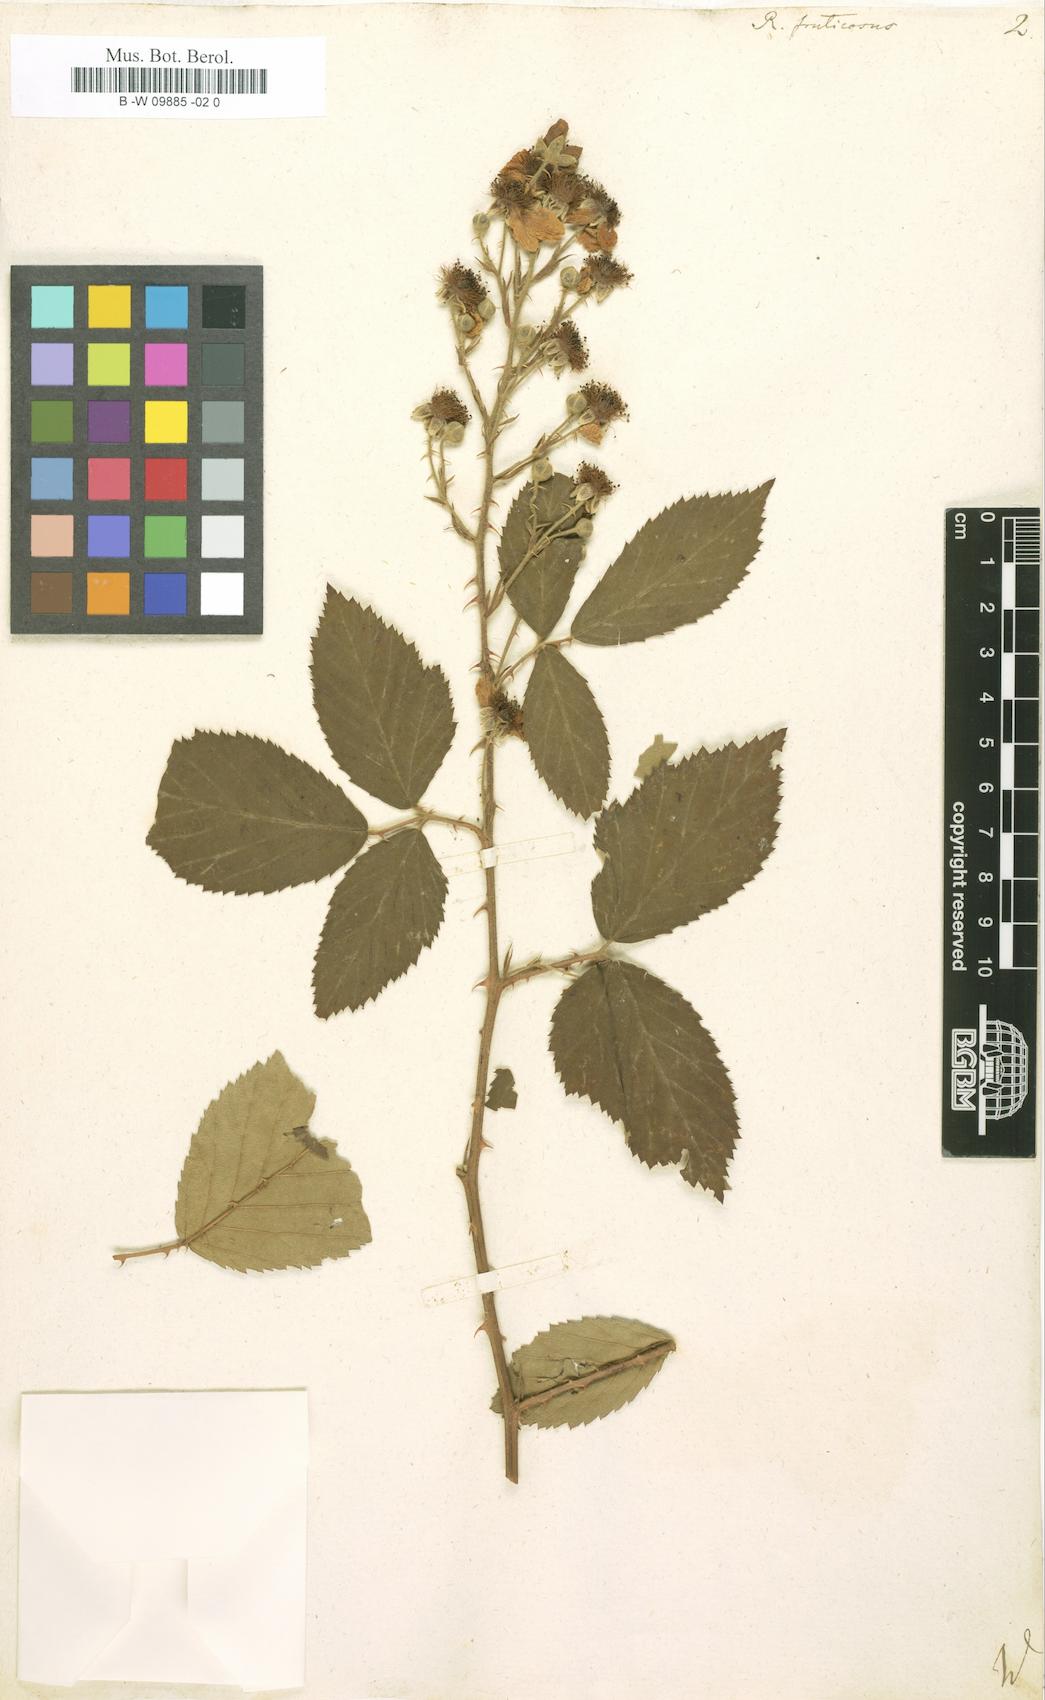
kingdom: Plantae
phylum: Tracheophyta
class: Magnoliopsida
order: Rosales
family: Rosaceae
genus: Rubus
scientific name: Rubus fruticosus
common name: Blackberry, bramble
